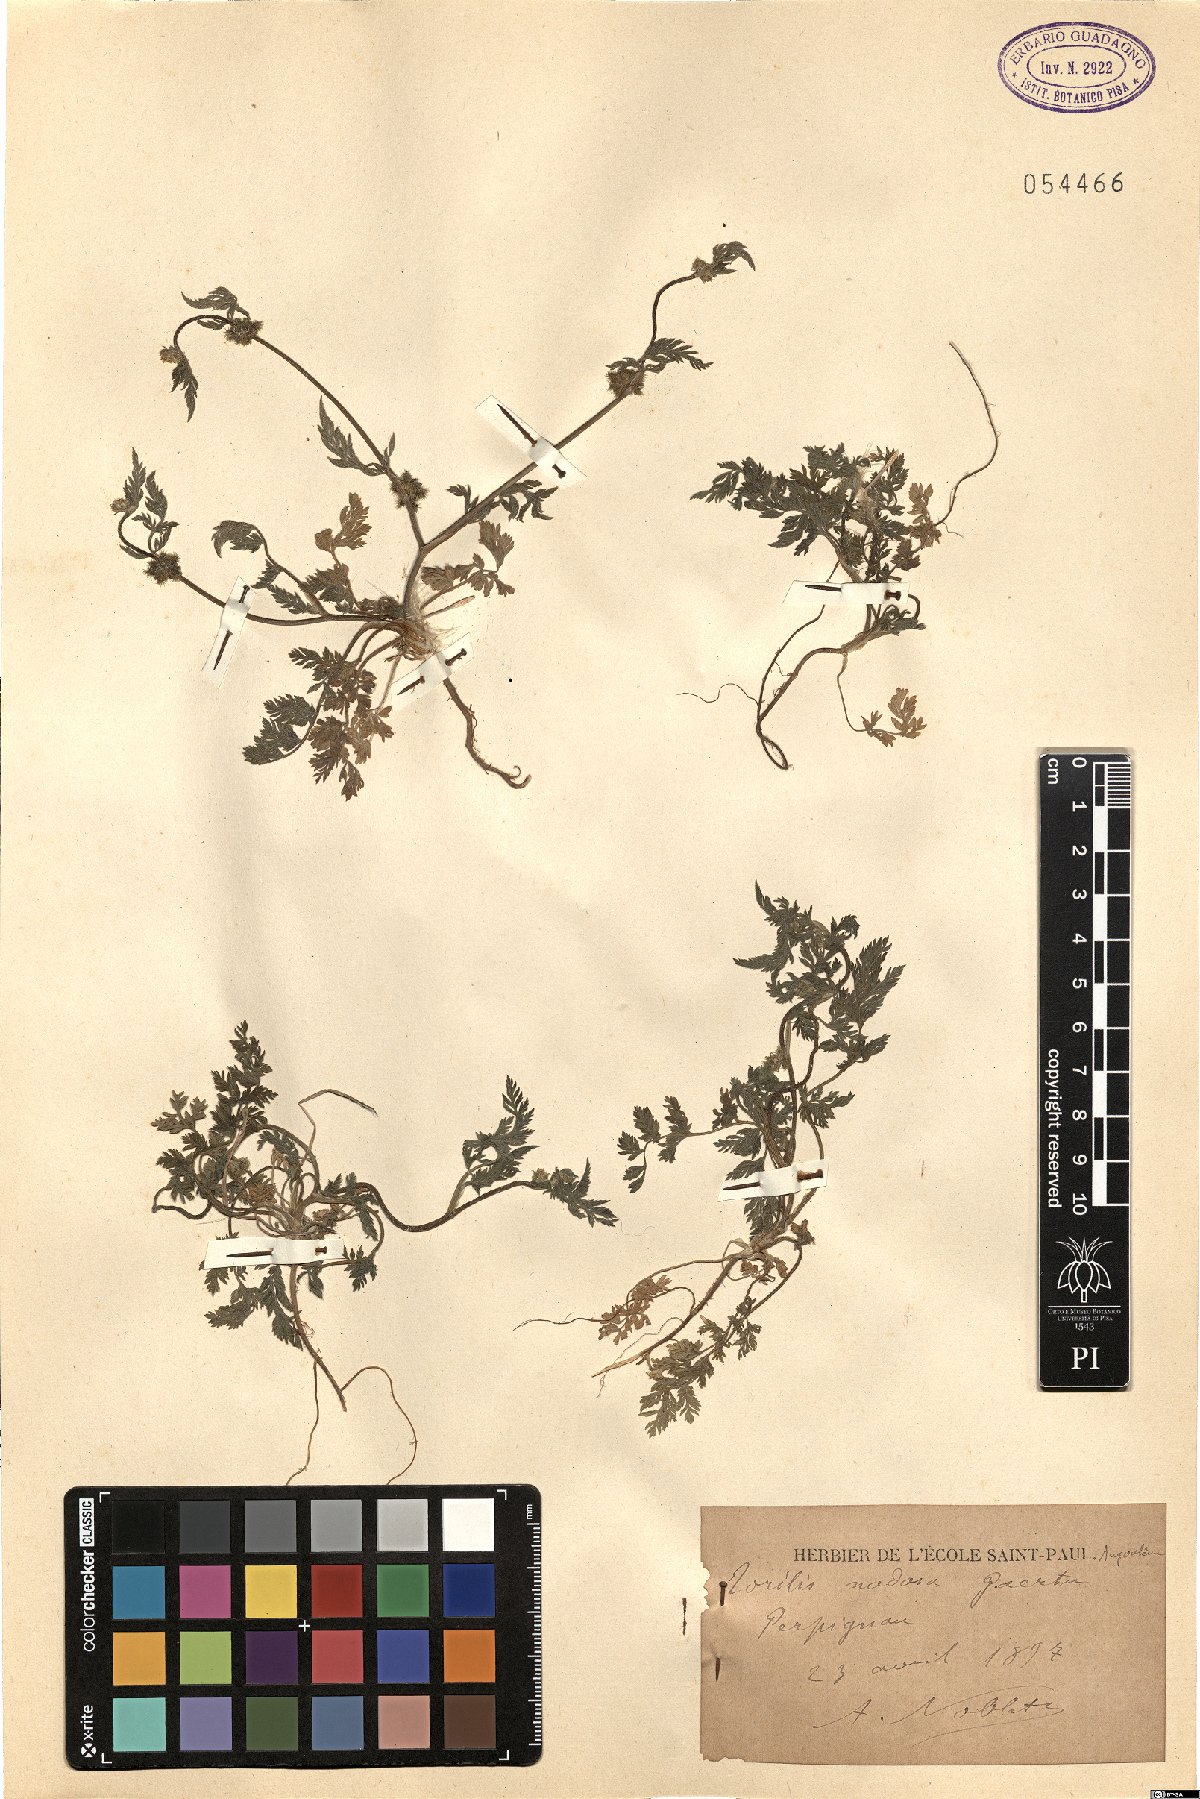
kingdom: Plantae
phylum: Tracheophyta
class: Magnoliopsida
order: Apiales
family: Apiaceae
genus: Torilis
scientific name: Torilis nodosa
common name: Knotted hedge-parsley
